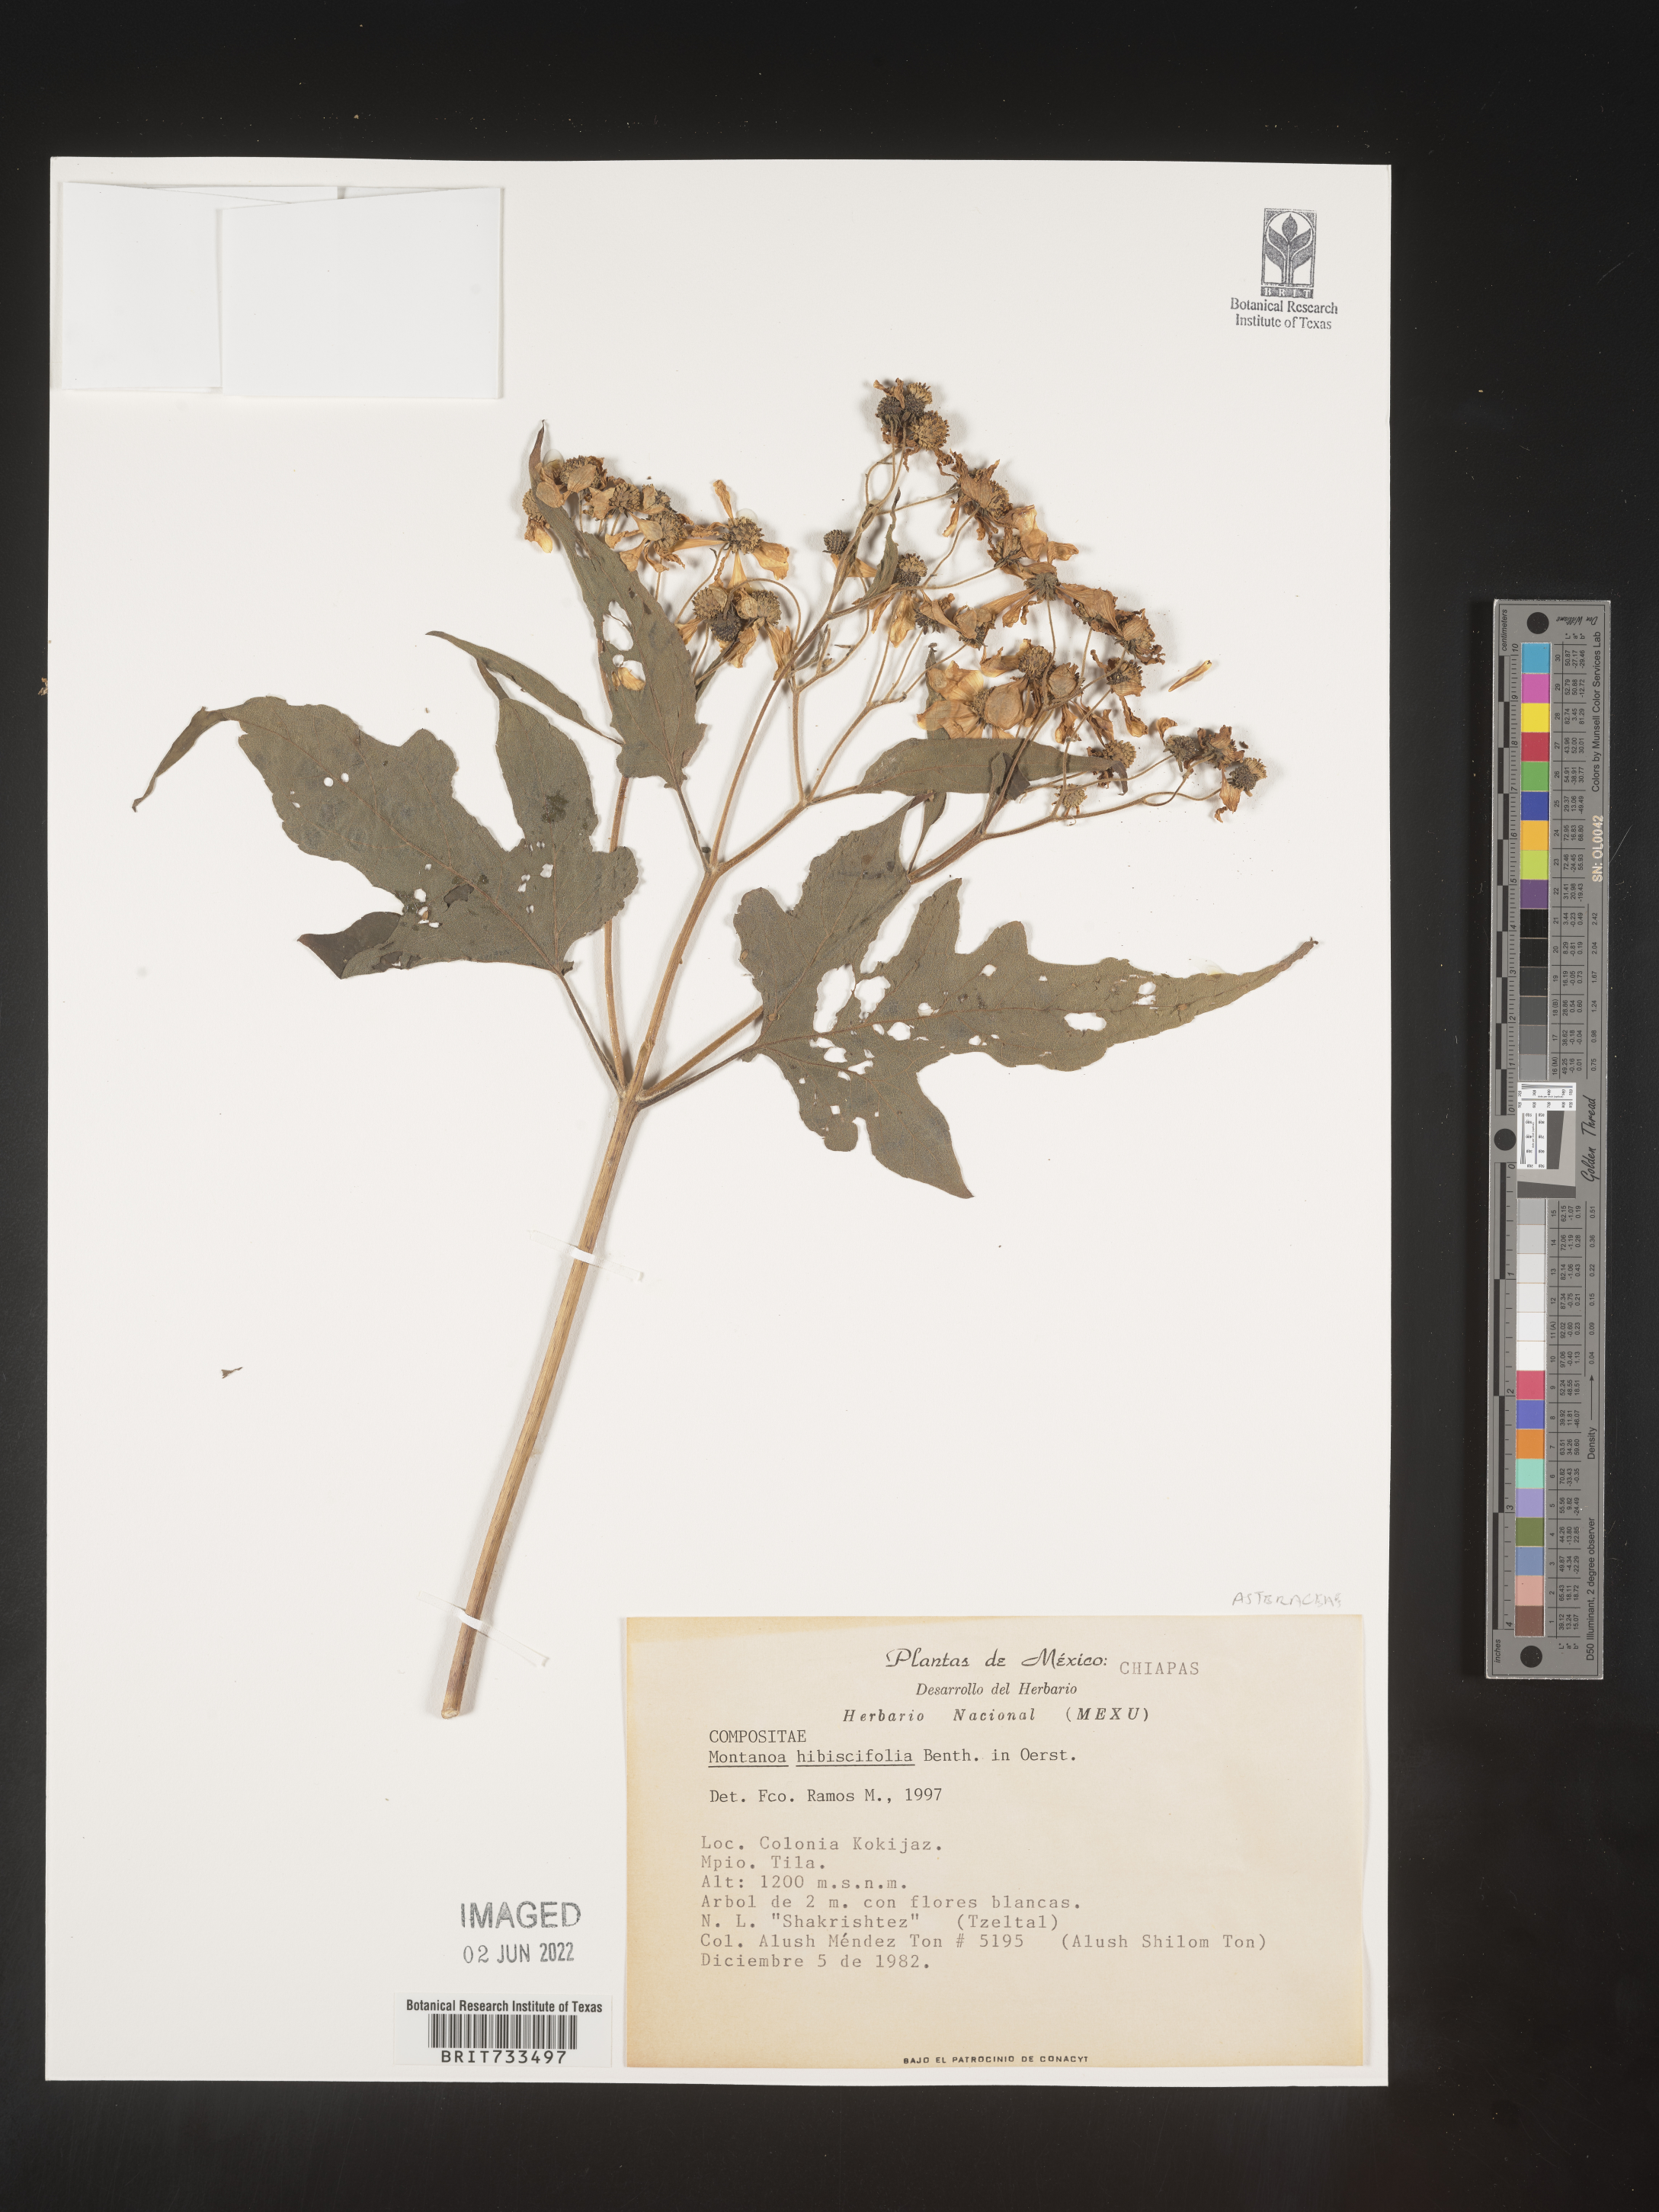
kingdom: Plantae
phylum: Tracheophyta
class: Magnoliopsida
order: Asterales
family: Asteraceae
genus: Montanoa
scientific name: Montanoa
